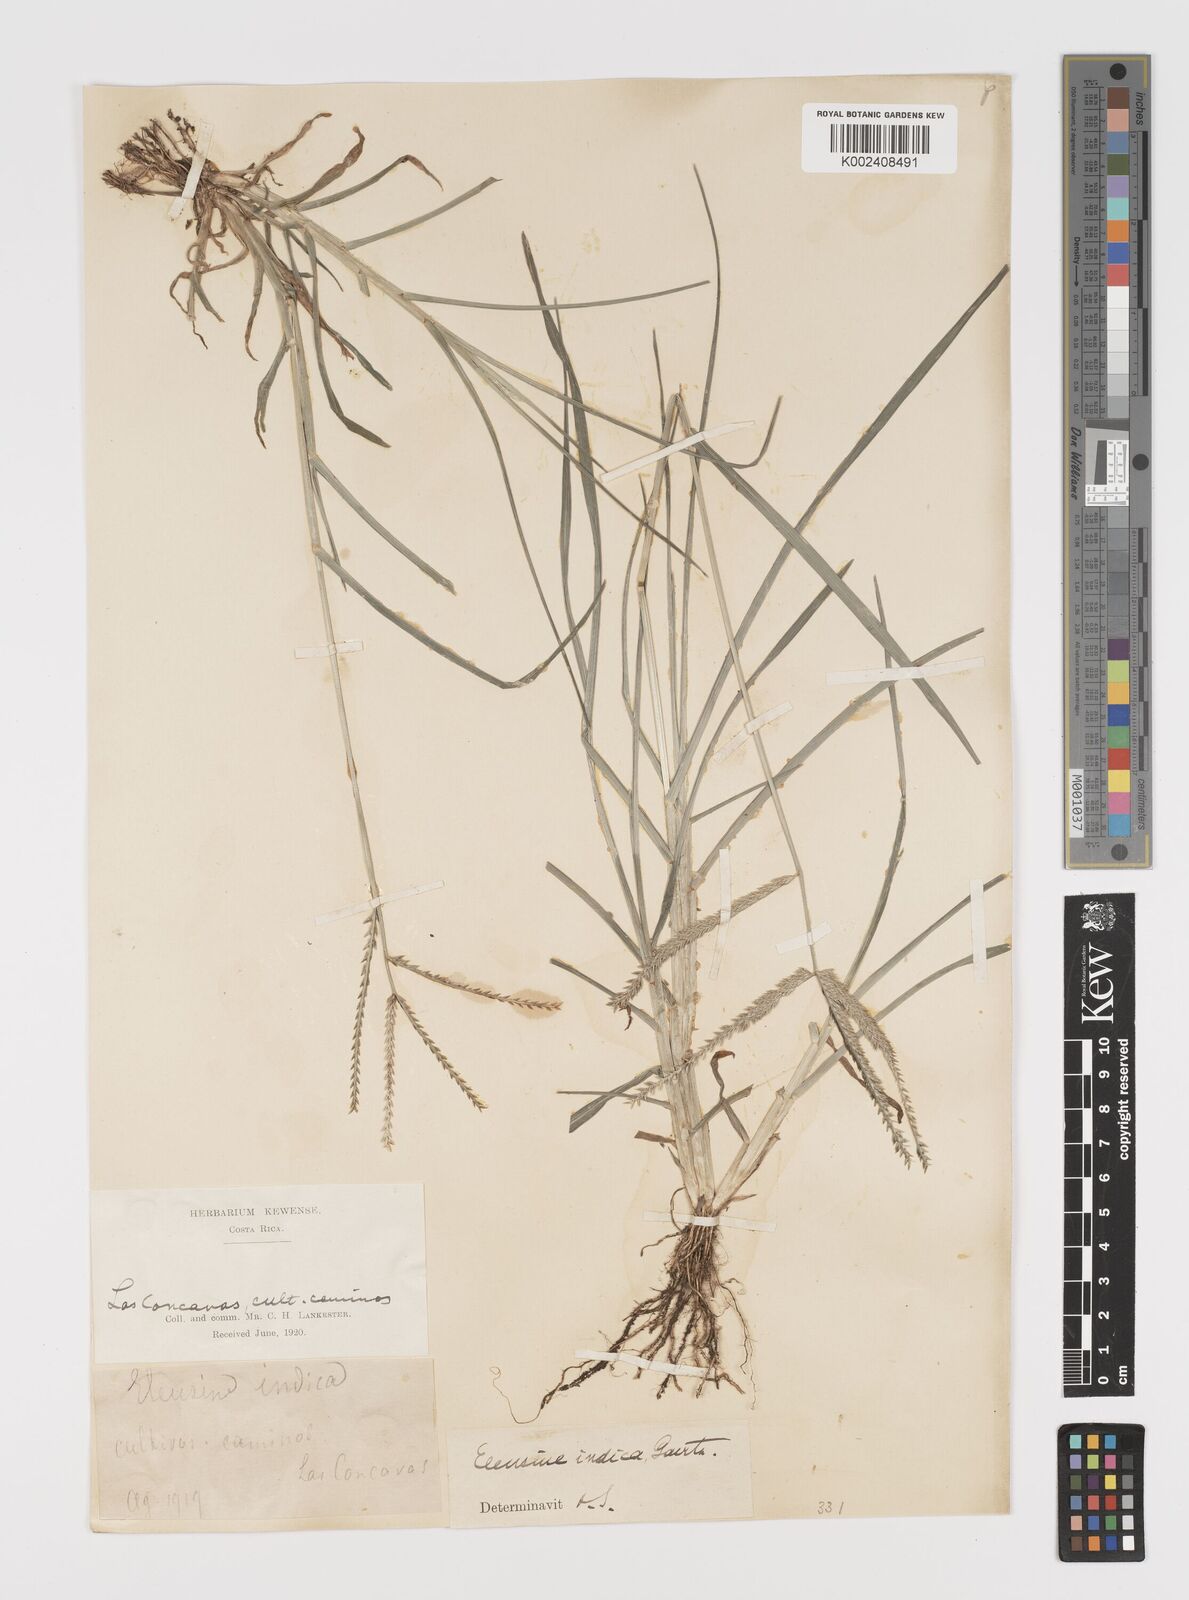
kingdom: Plantae
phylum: Tracheophyta
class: Liliopsida
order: Poales
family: Poaceae
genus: Eleusine
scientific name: Eleusine indica
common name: Yard-grass
